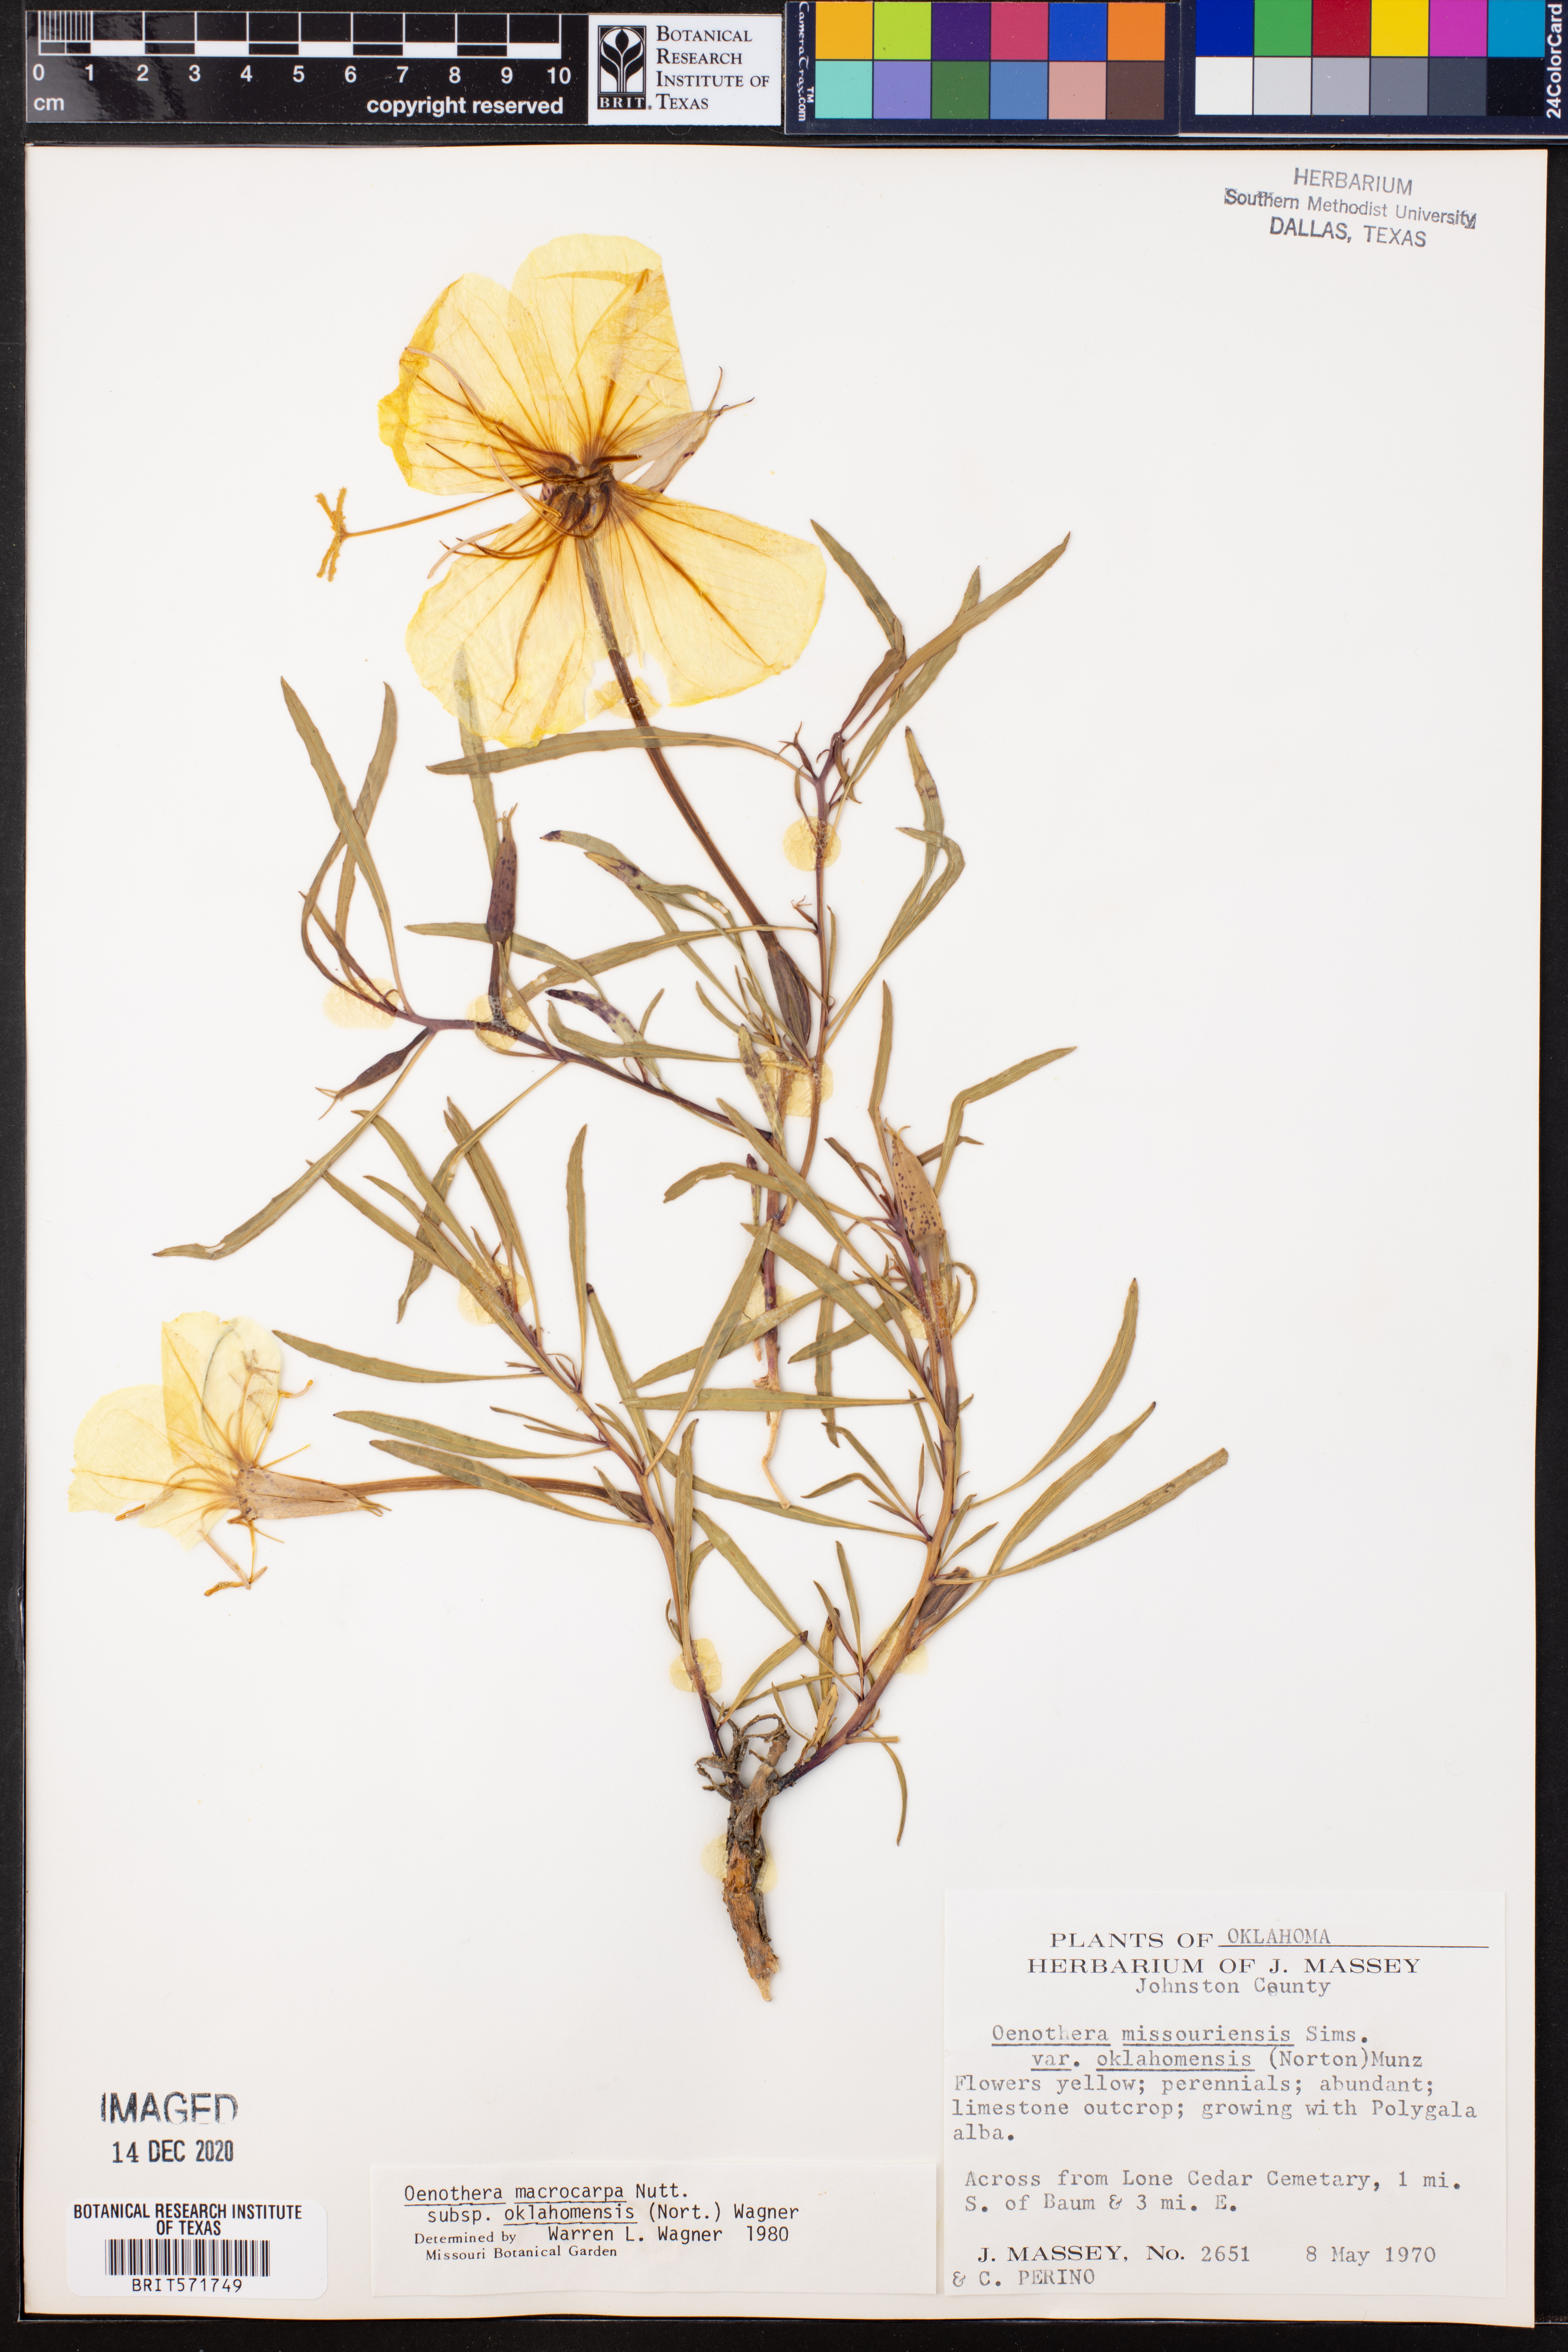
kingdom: Plantae
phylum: Tracheophyta
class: Magnoliopsida
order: Myrtales
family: Onagraceae
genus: Oenothera
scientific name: Oenothera macrocarpa
